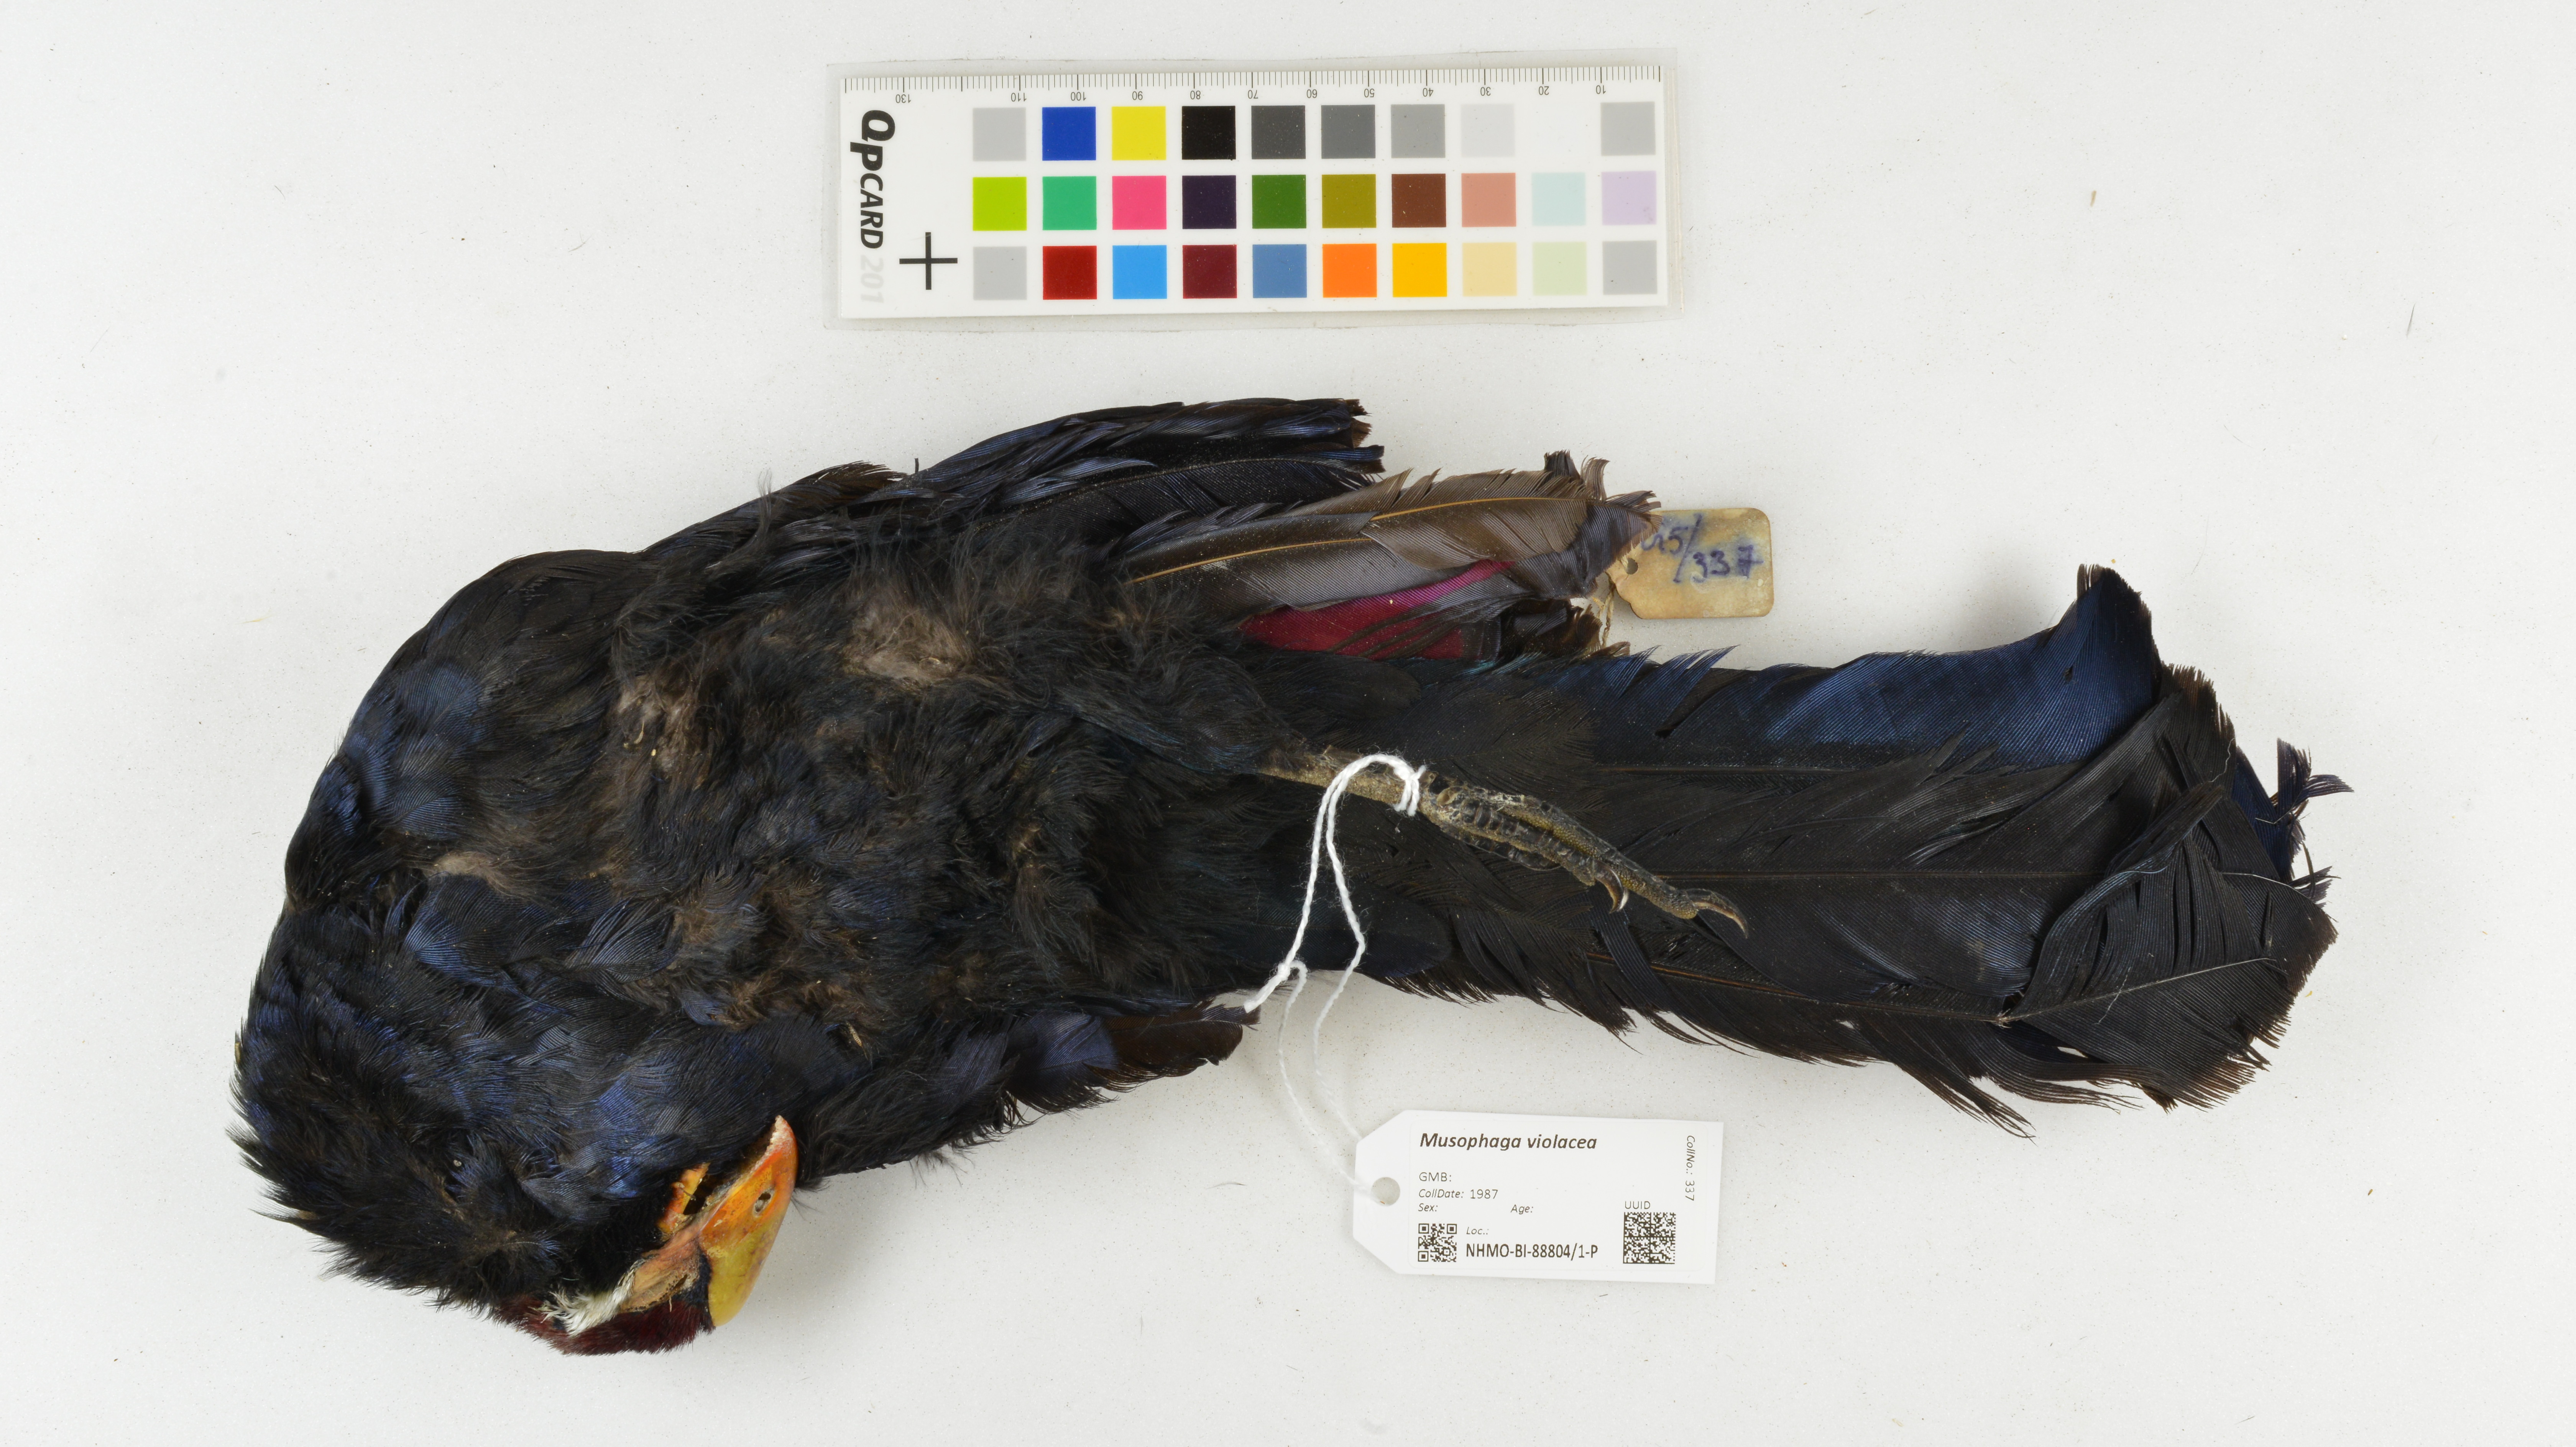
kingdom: Animalia
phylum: Chordata
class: Aves
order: Musophagiformes
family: Musophagidae
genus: Musophaga
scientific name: Musophaga violacea
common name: Violet turaco
